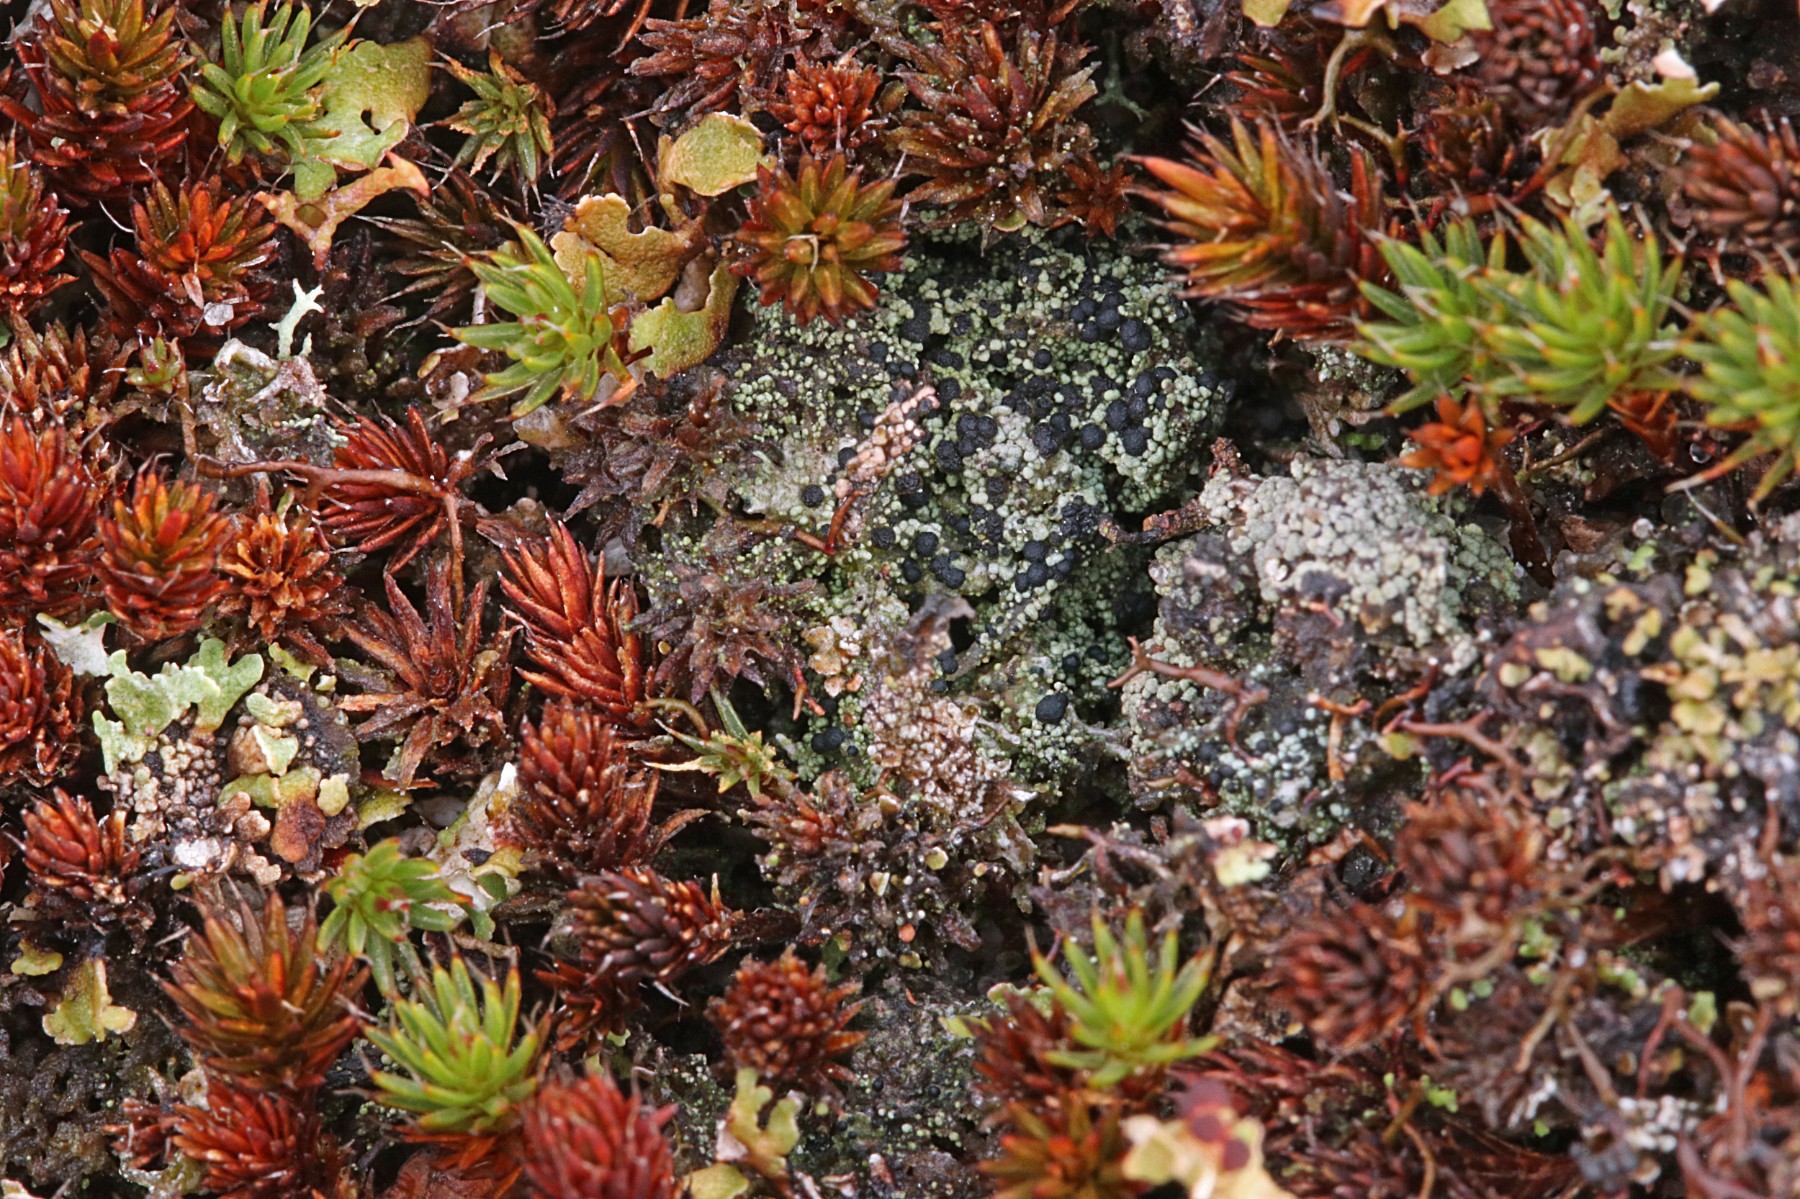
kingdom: Fungi
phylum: Ascomycota
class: Lecanoromycetes
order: Lecanorales
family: Byssolomataceae
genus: Micarea
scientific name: Micarea lignaria
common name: tørve-knaplav
